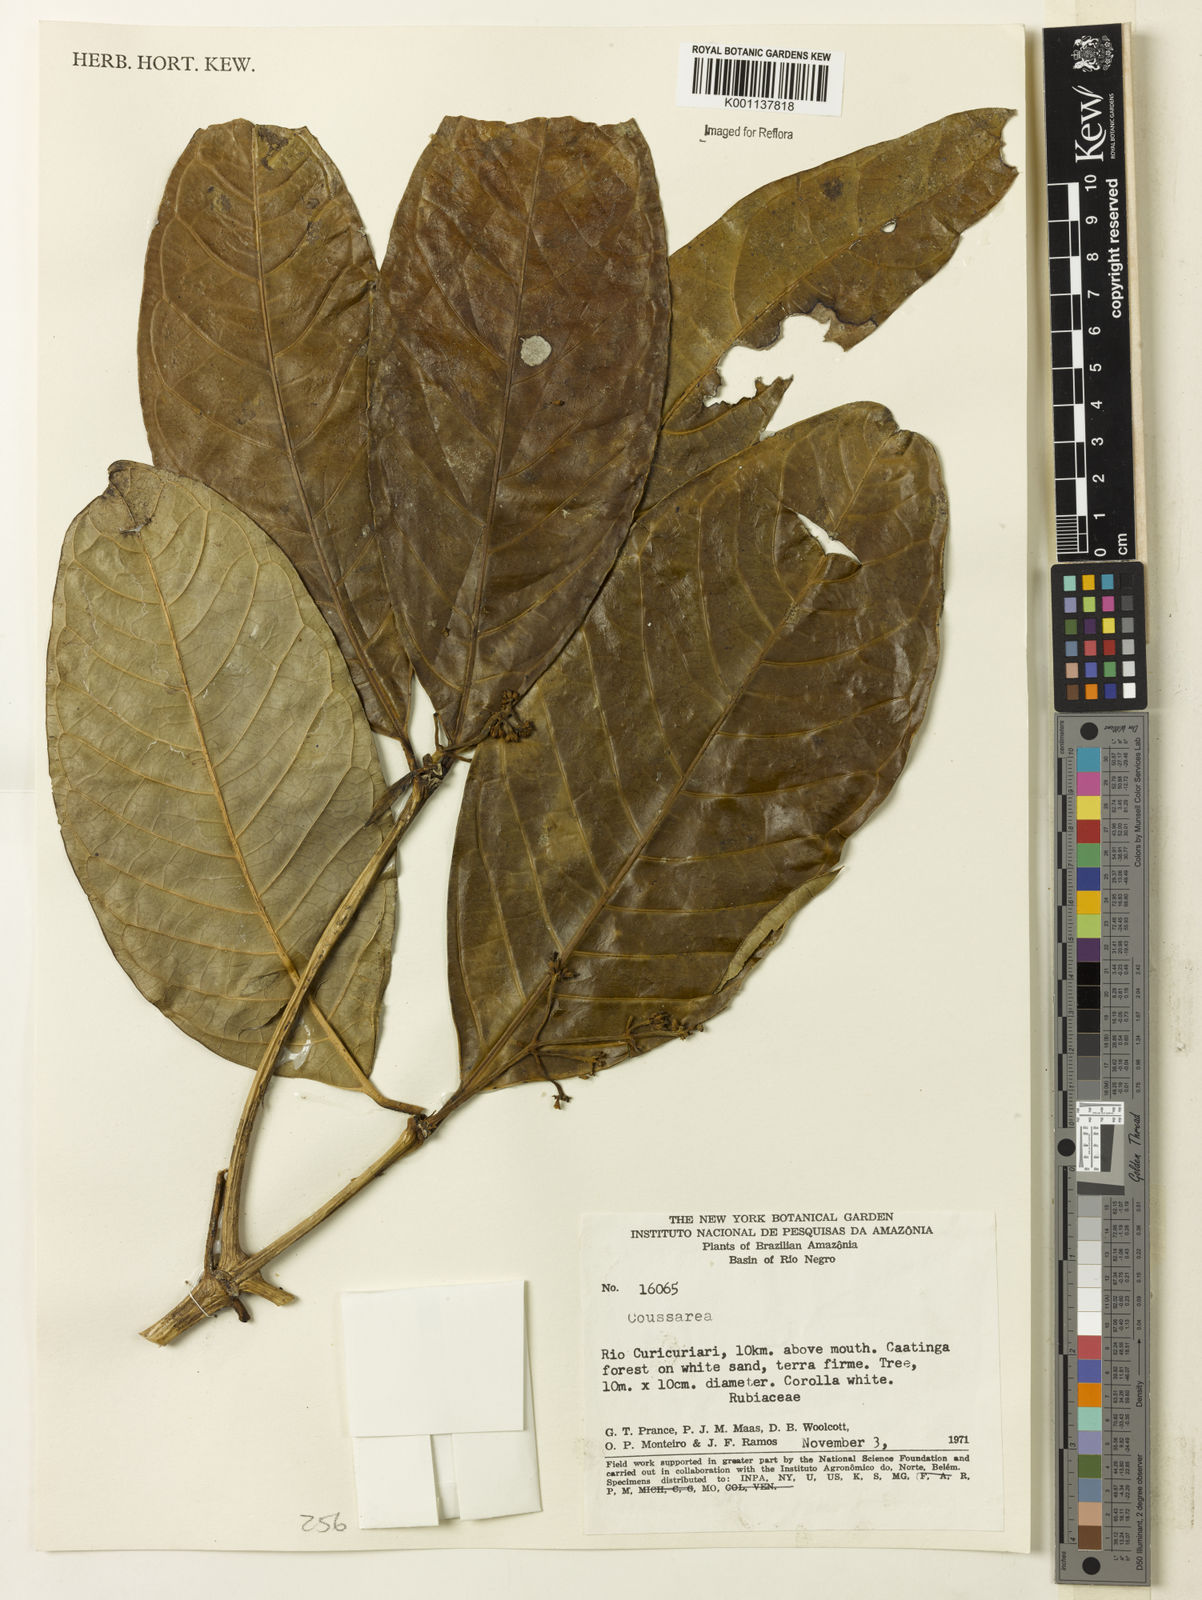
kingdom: Plantae
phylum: Tracheophyta
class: Magnoliopsida
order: Gentianales
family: Rubiaceae
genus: Coussarea
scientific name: Coussarea
